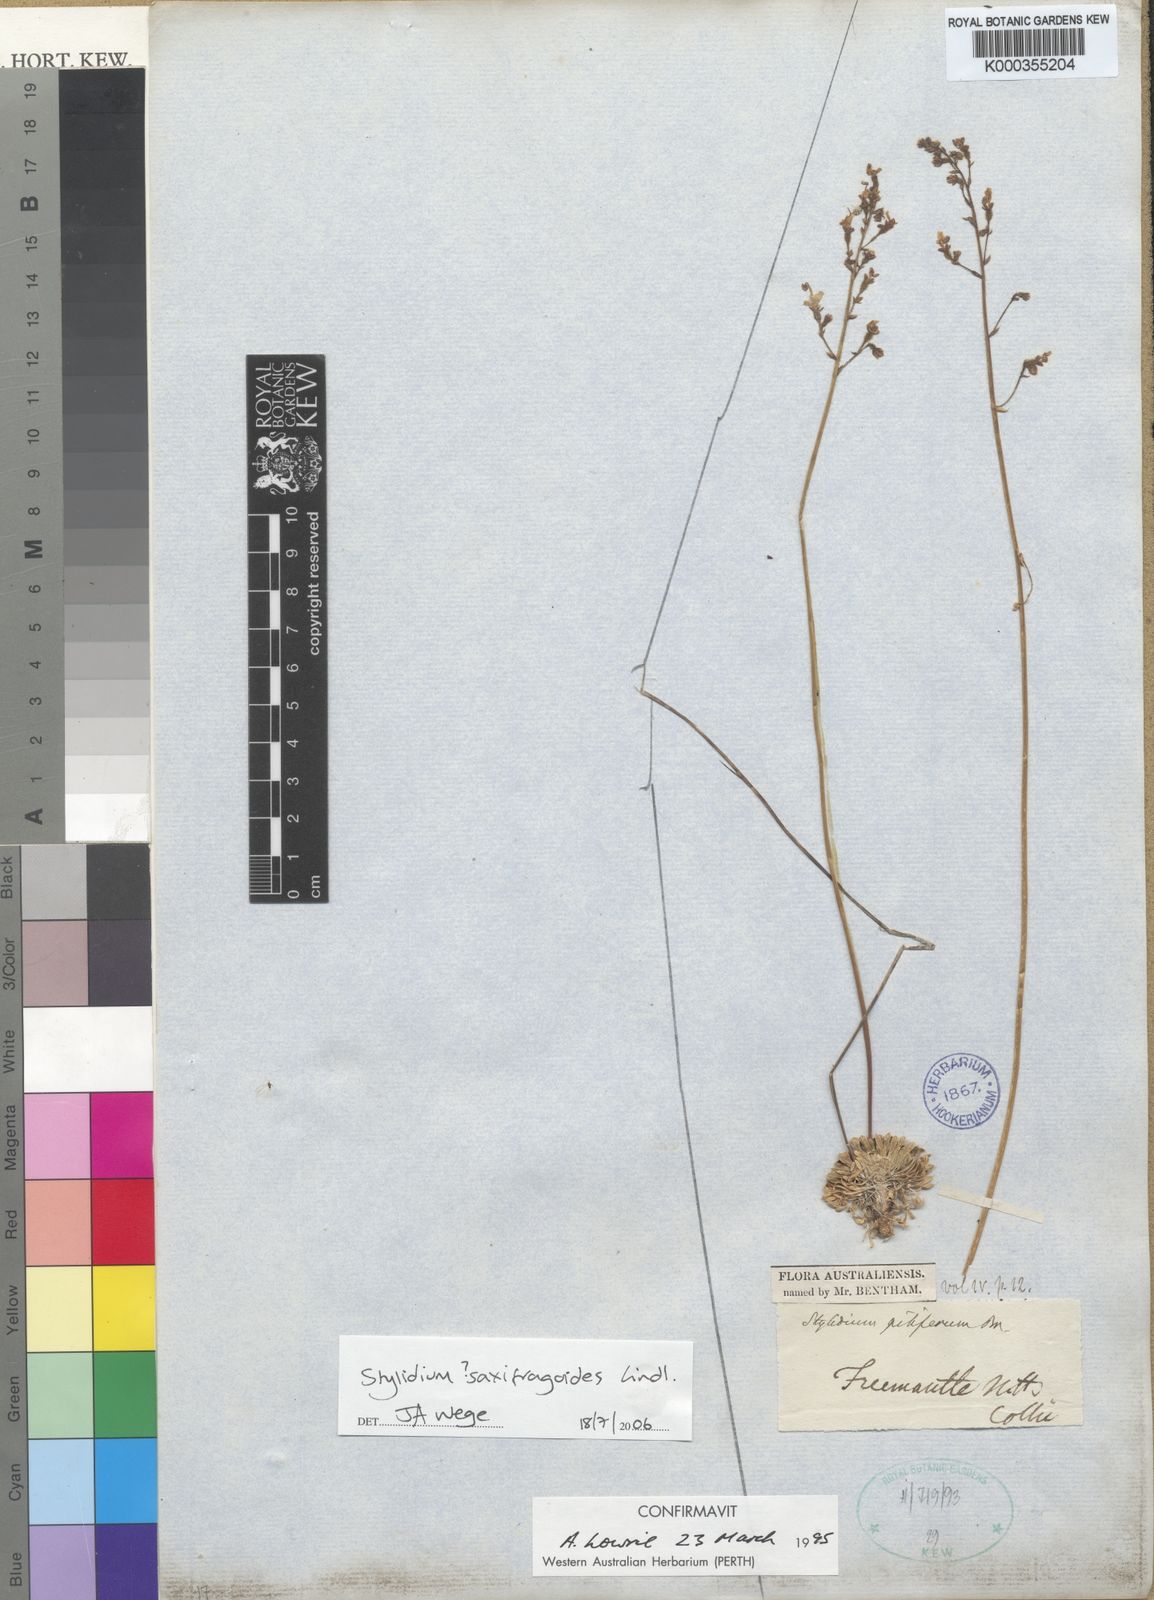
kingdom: Plantae
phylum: Tracheophyta
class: Magnoliopsida
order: Asterales
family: Stylidiaceae
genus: Stylidium
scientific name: Stylidium piliferum
